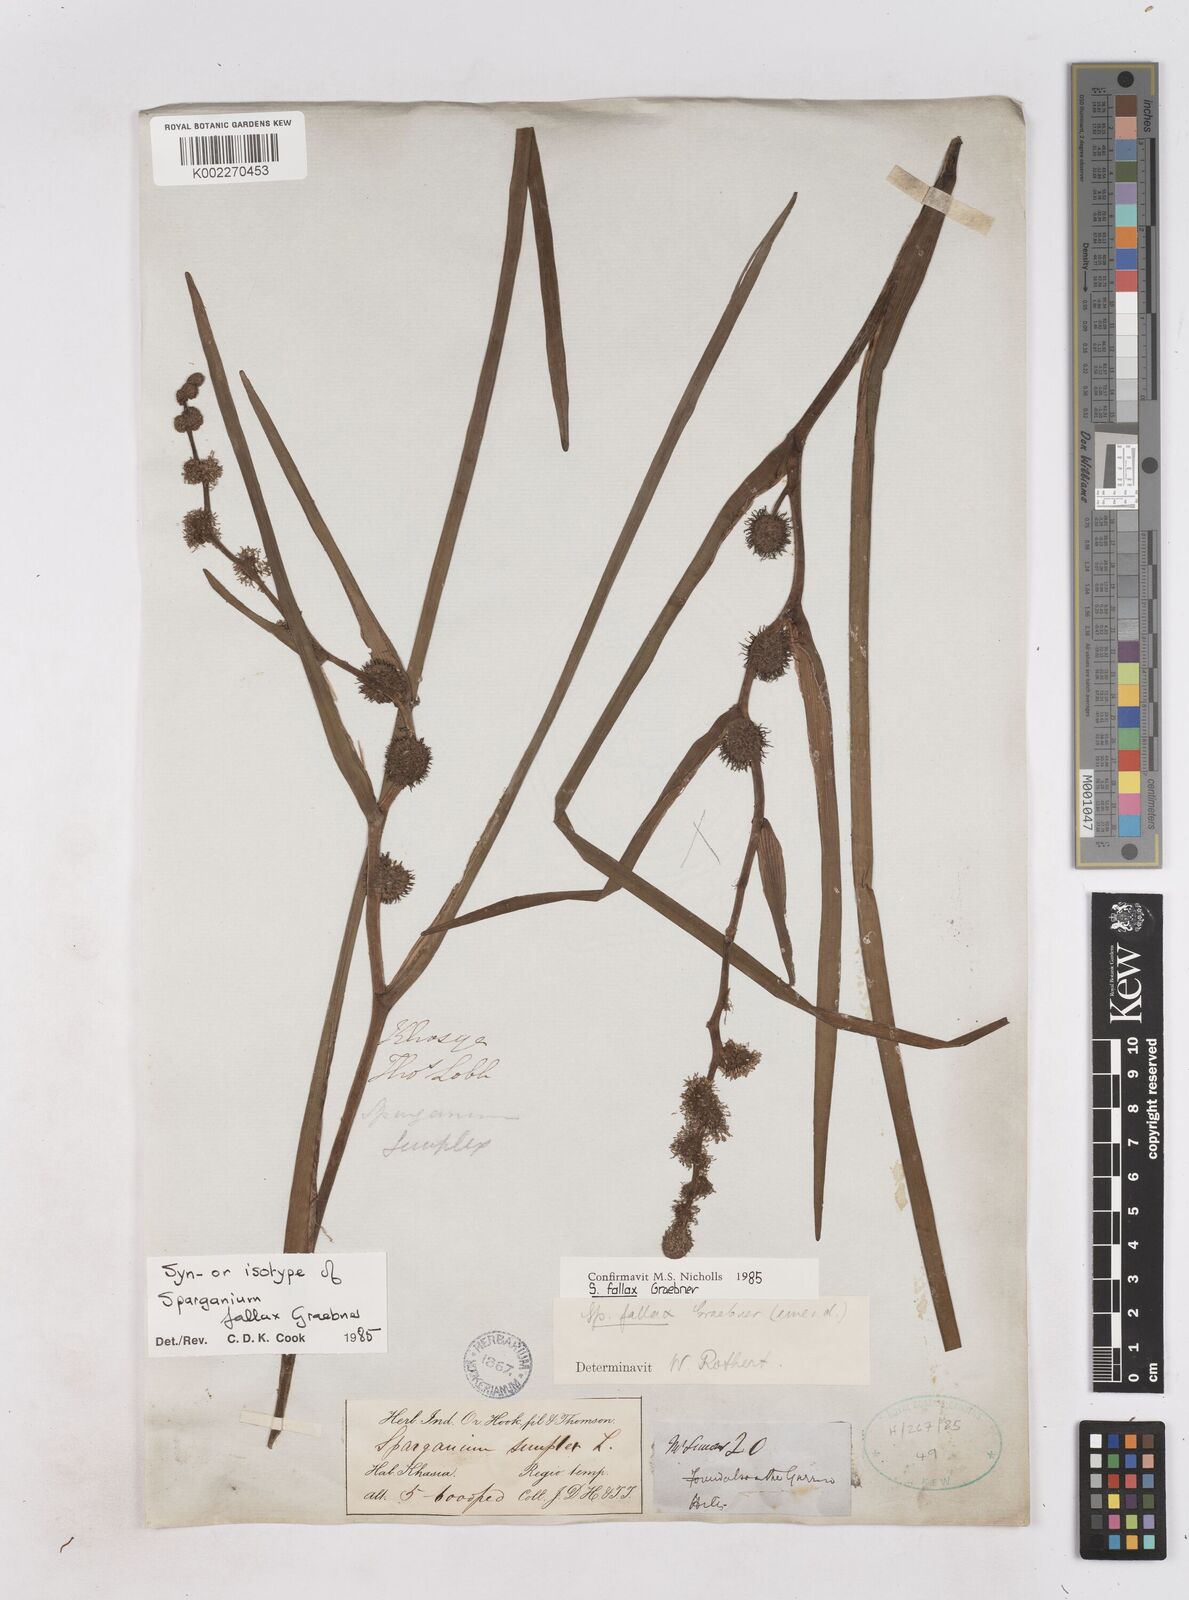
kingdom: Plantae
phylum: Tracheophyta
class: Liliopsida
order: Poales
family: Typhaceae
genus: Sparganium
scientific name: Sparganium fallax
